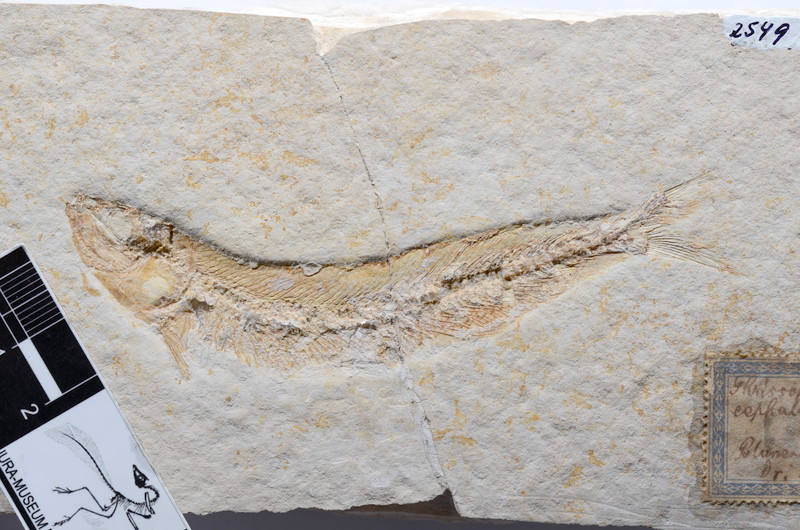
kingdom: Animalia
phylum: Chordata
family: Allothrissopidae
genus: Allothrissops
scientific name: Allothrissops mesogaster
